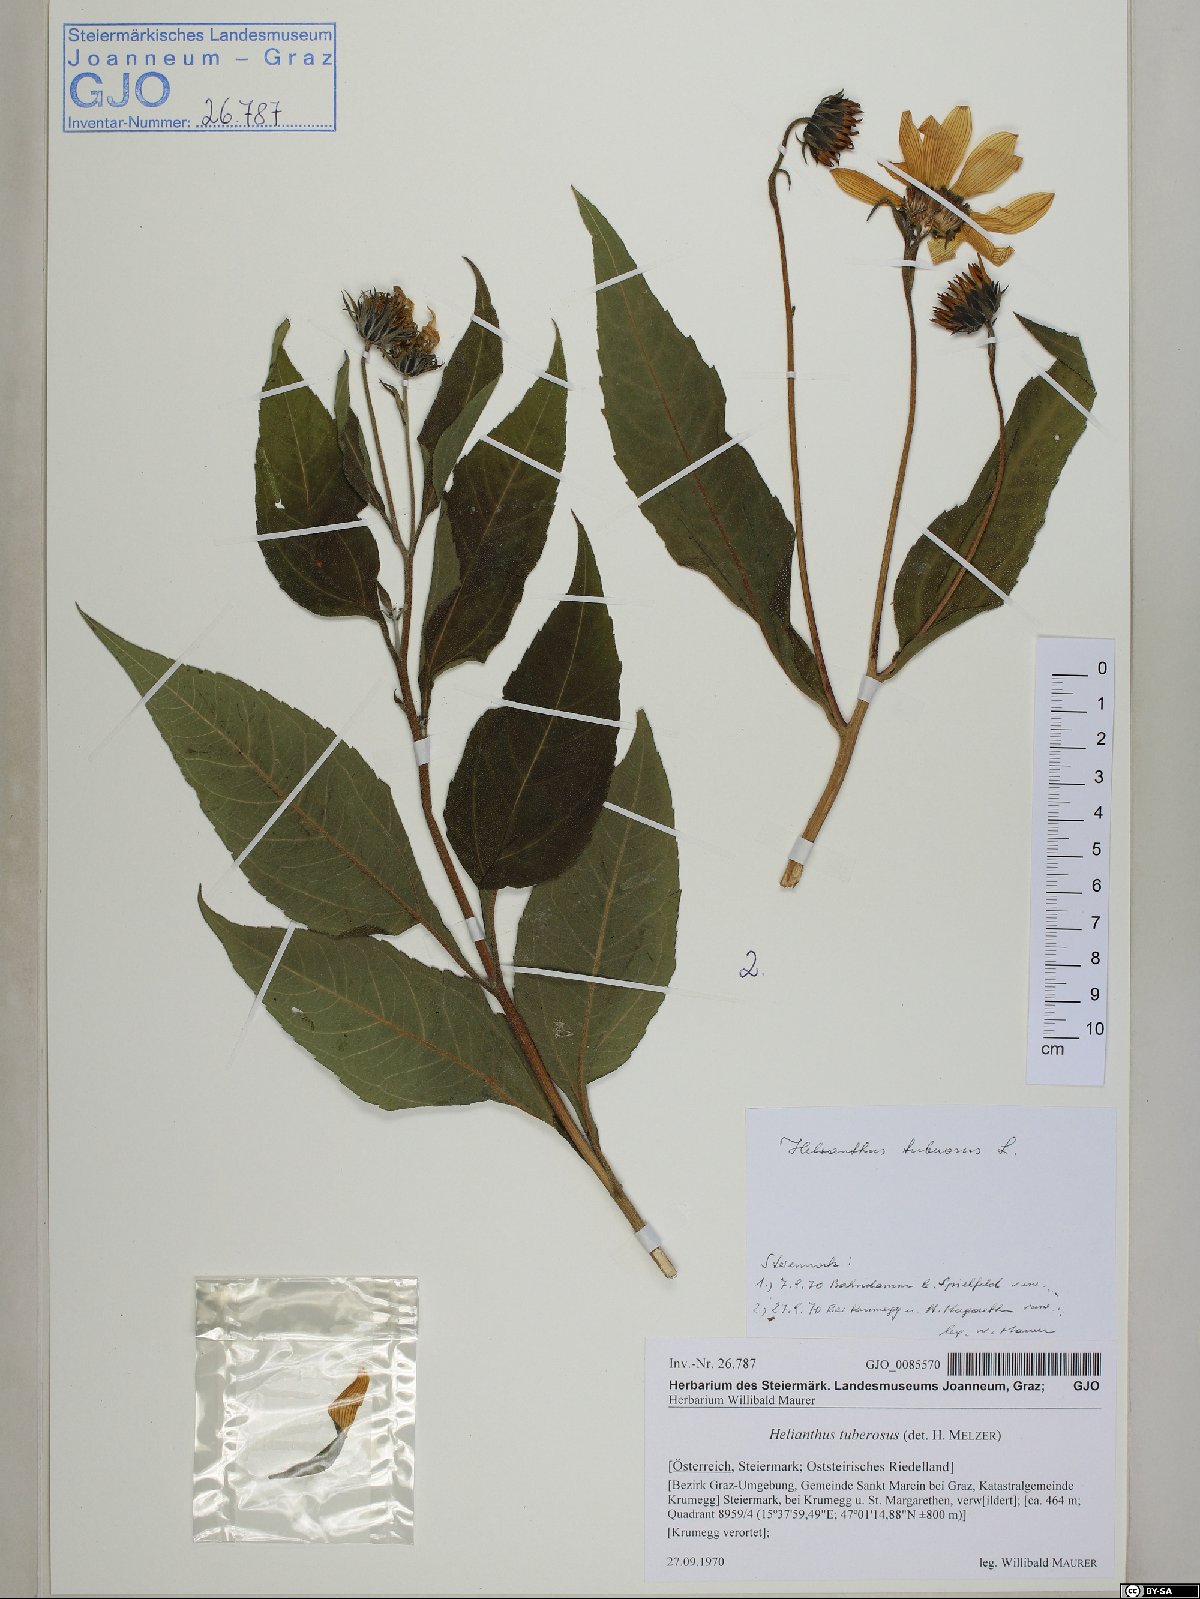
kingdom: Plantae
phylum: Tracheophyta
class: Magnoliopsida
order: Asterales
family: Asteraceae
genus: Helianthus
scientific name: Helianthus tuberosus
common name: Jerusalem artichoke
